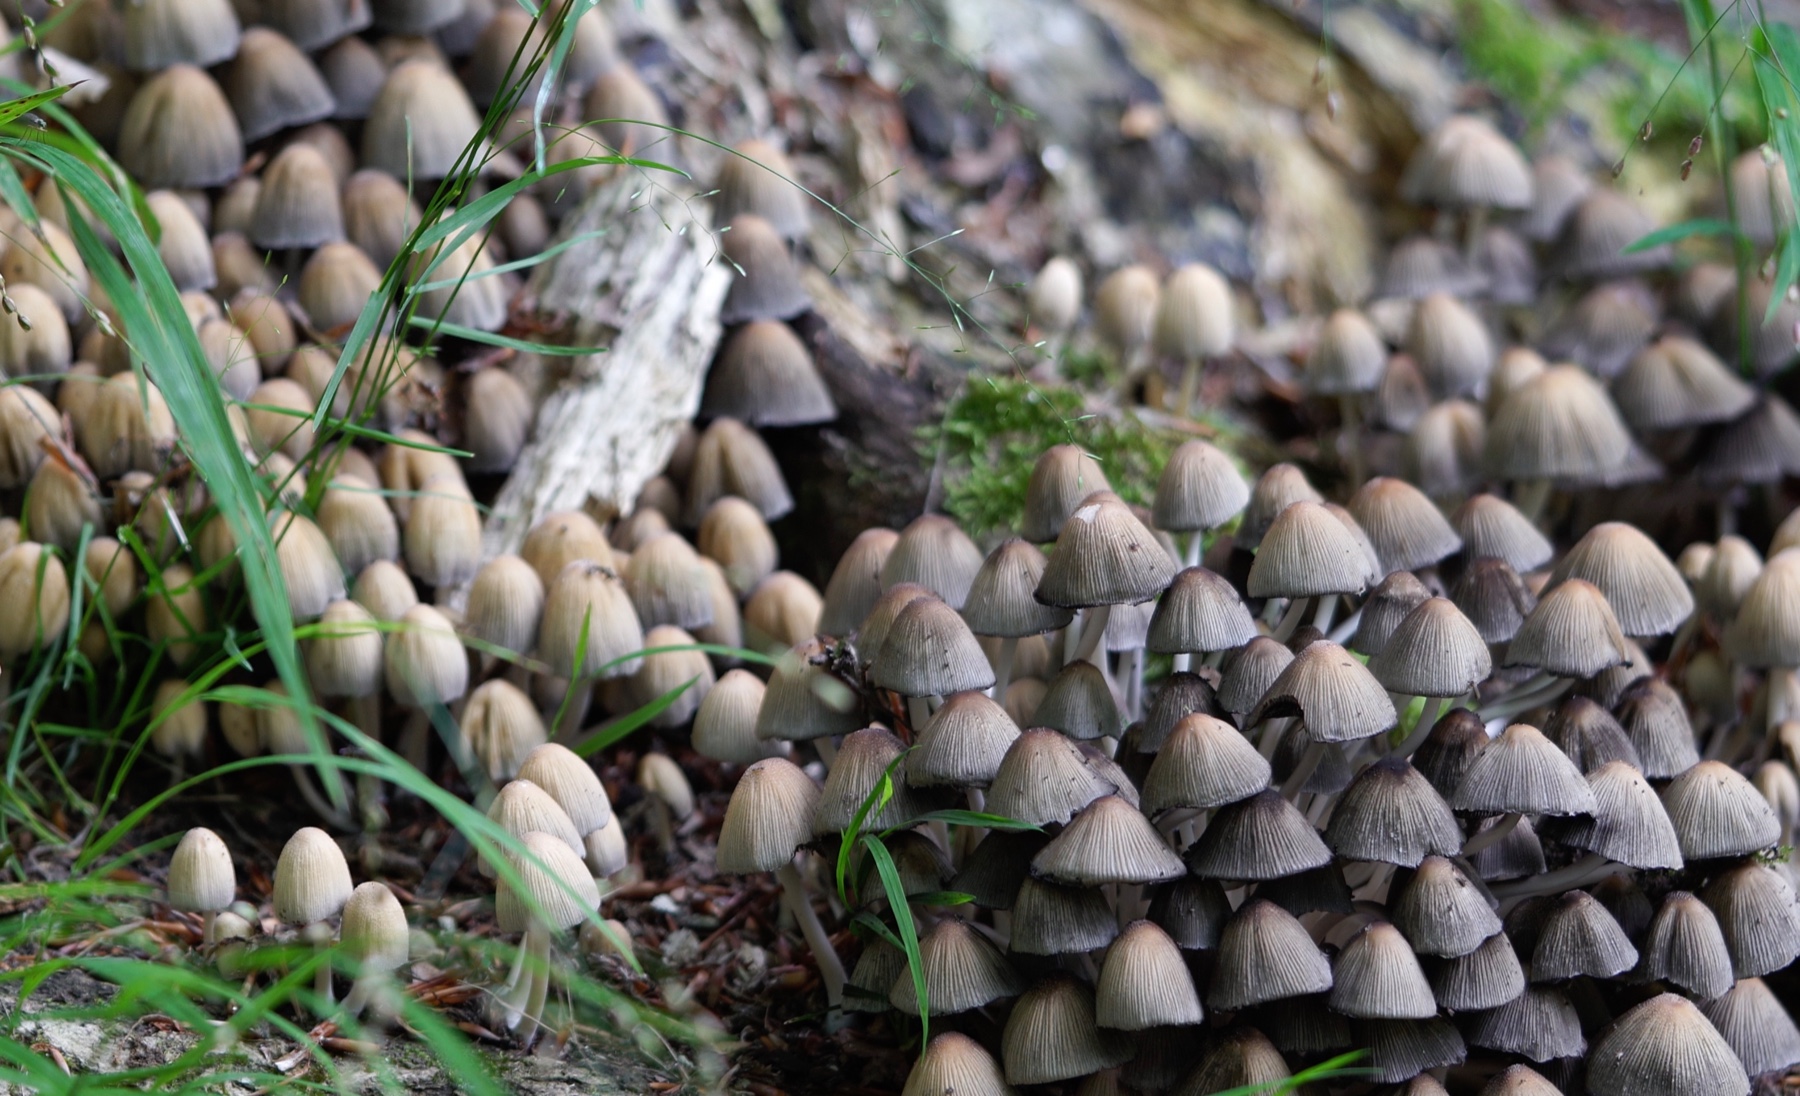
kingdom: Fungi
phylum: Basidiomycota
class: Agaricomycetes
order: Agaricales
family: Psathyrellaceae
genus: Coprinellus
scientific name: Coprinellus disseminatus
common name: bredsået blækhat
